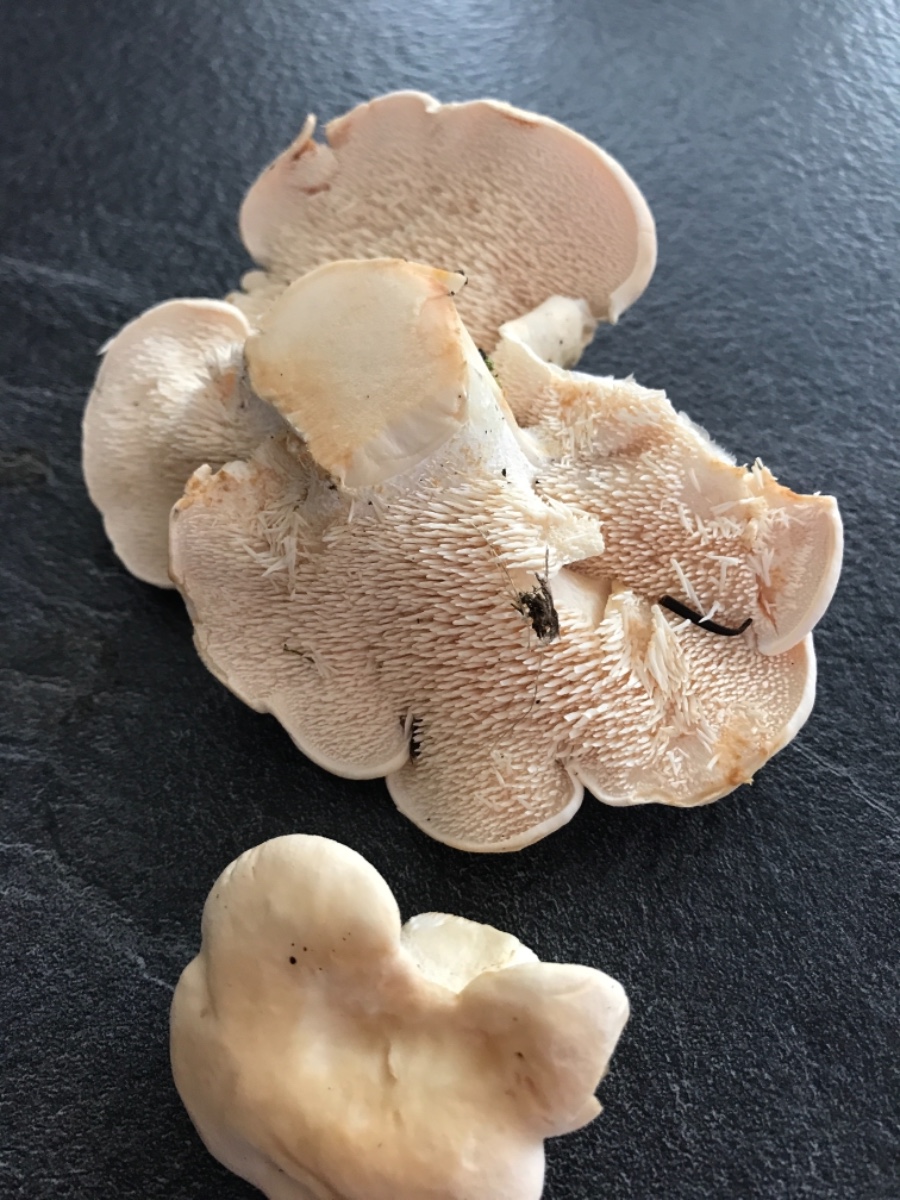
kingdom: Fungi
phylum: Basidiomycota
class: Agaricomycetes
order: Cantharellales
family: Hydnaceae
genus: Hydnum
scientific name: Hydnum repandum
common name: almindelig pigsvamp
